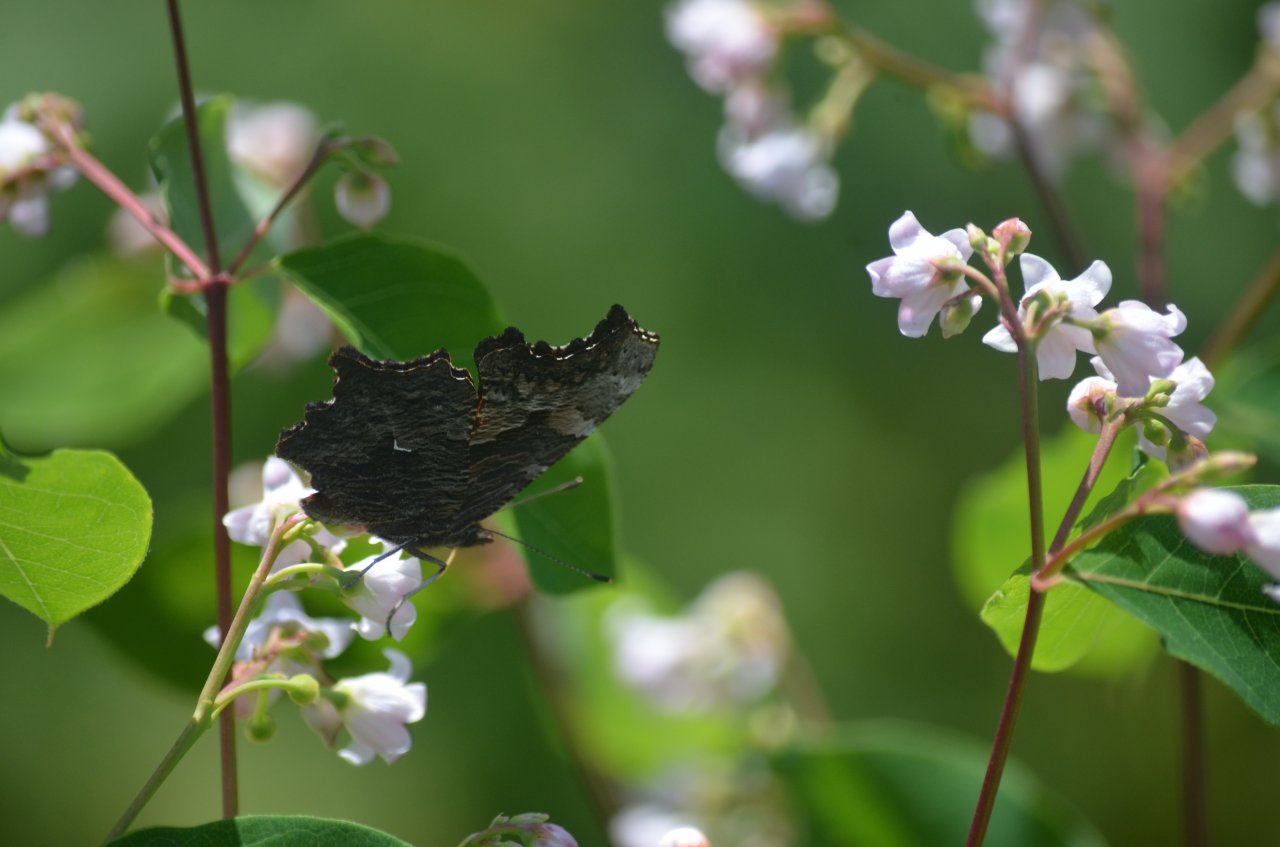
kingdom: Animalia
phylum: Arthropoda
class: Insecta
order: Lepidoptera
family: Nymphalidae
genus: Polygonia
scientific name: Polygonia progne
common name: Gray Comma
